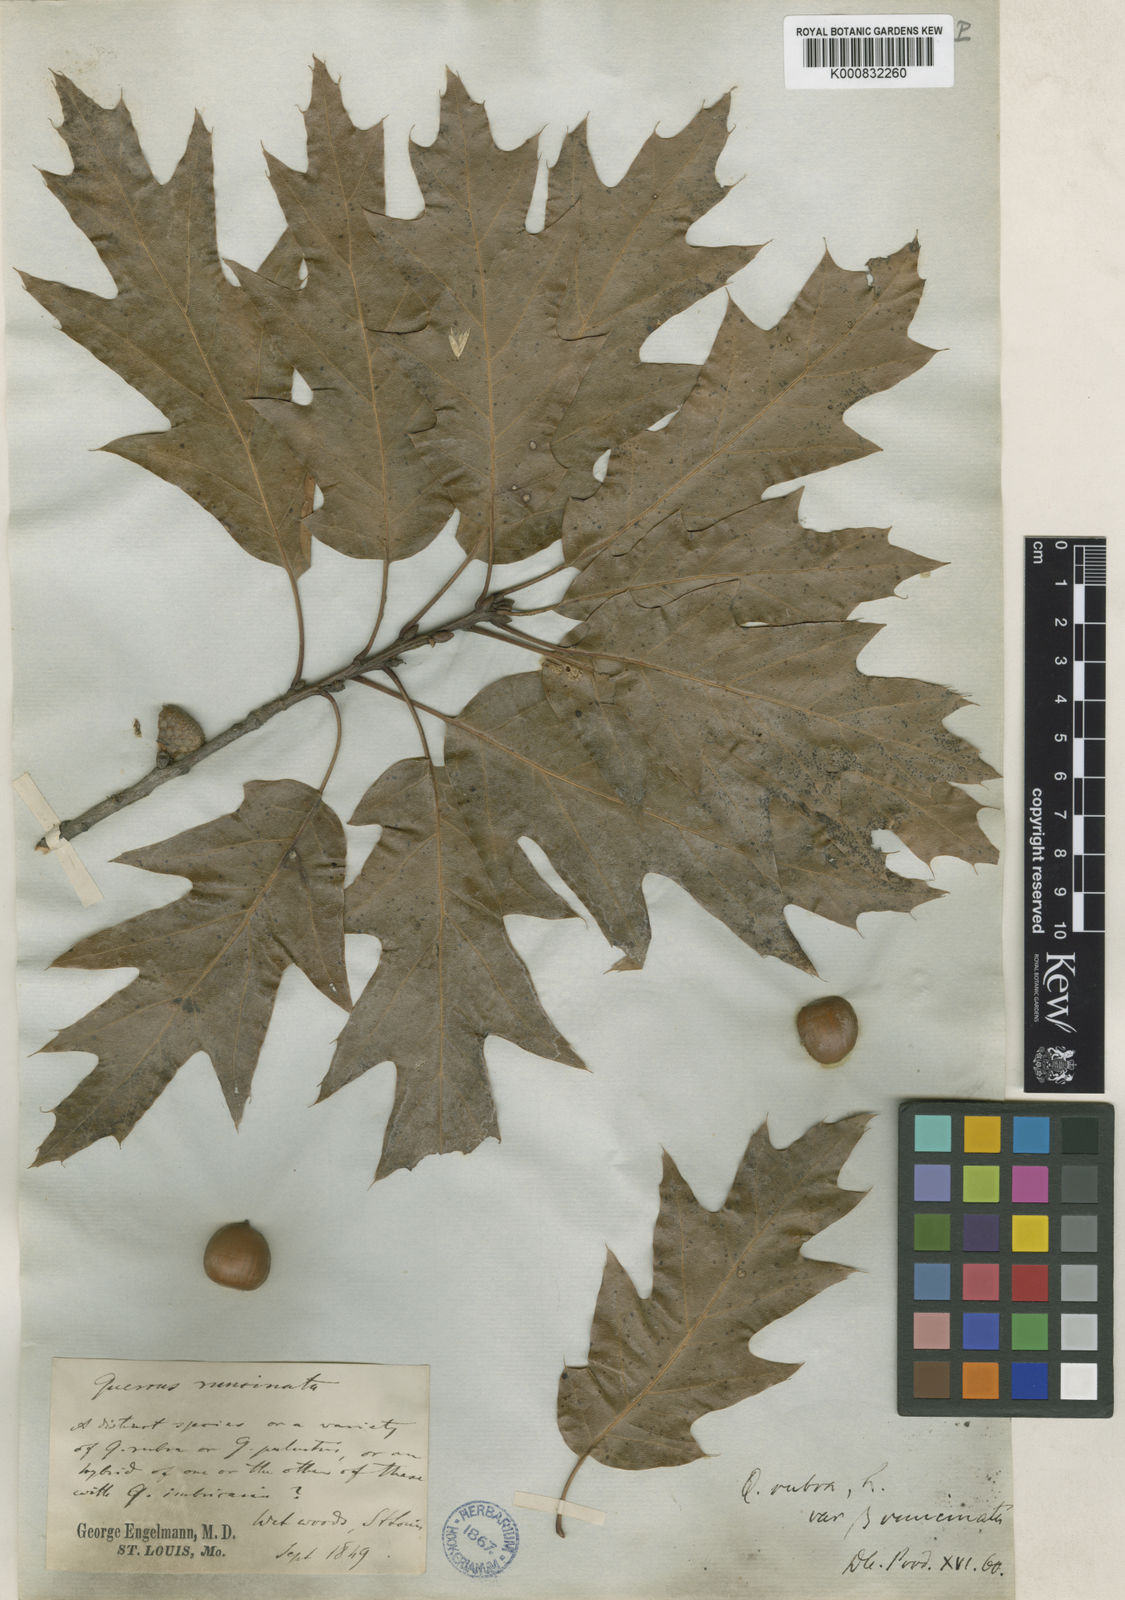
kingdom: Plantae
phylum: Tracheophyta
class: Magnoliopsida
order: Fagales
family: Fagaceae
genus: Quercus
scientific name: Quercus imbricaria
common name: Shingle oak
